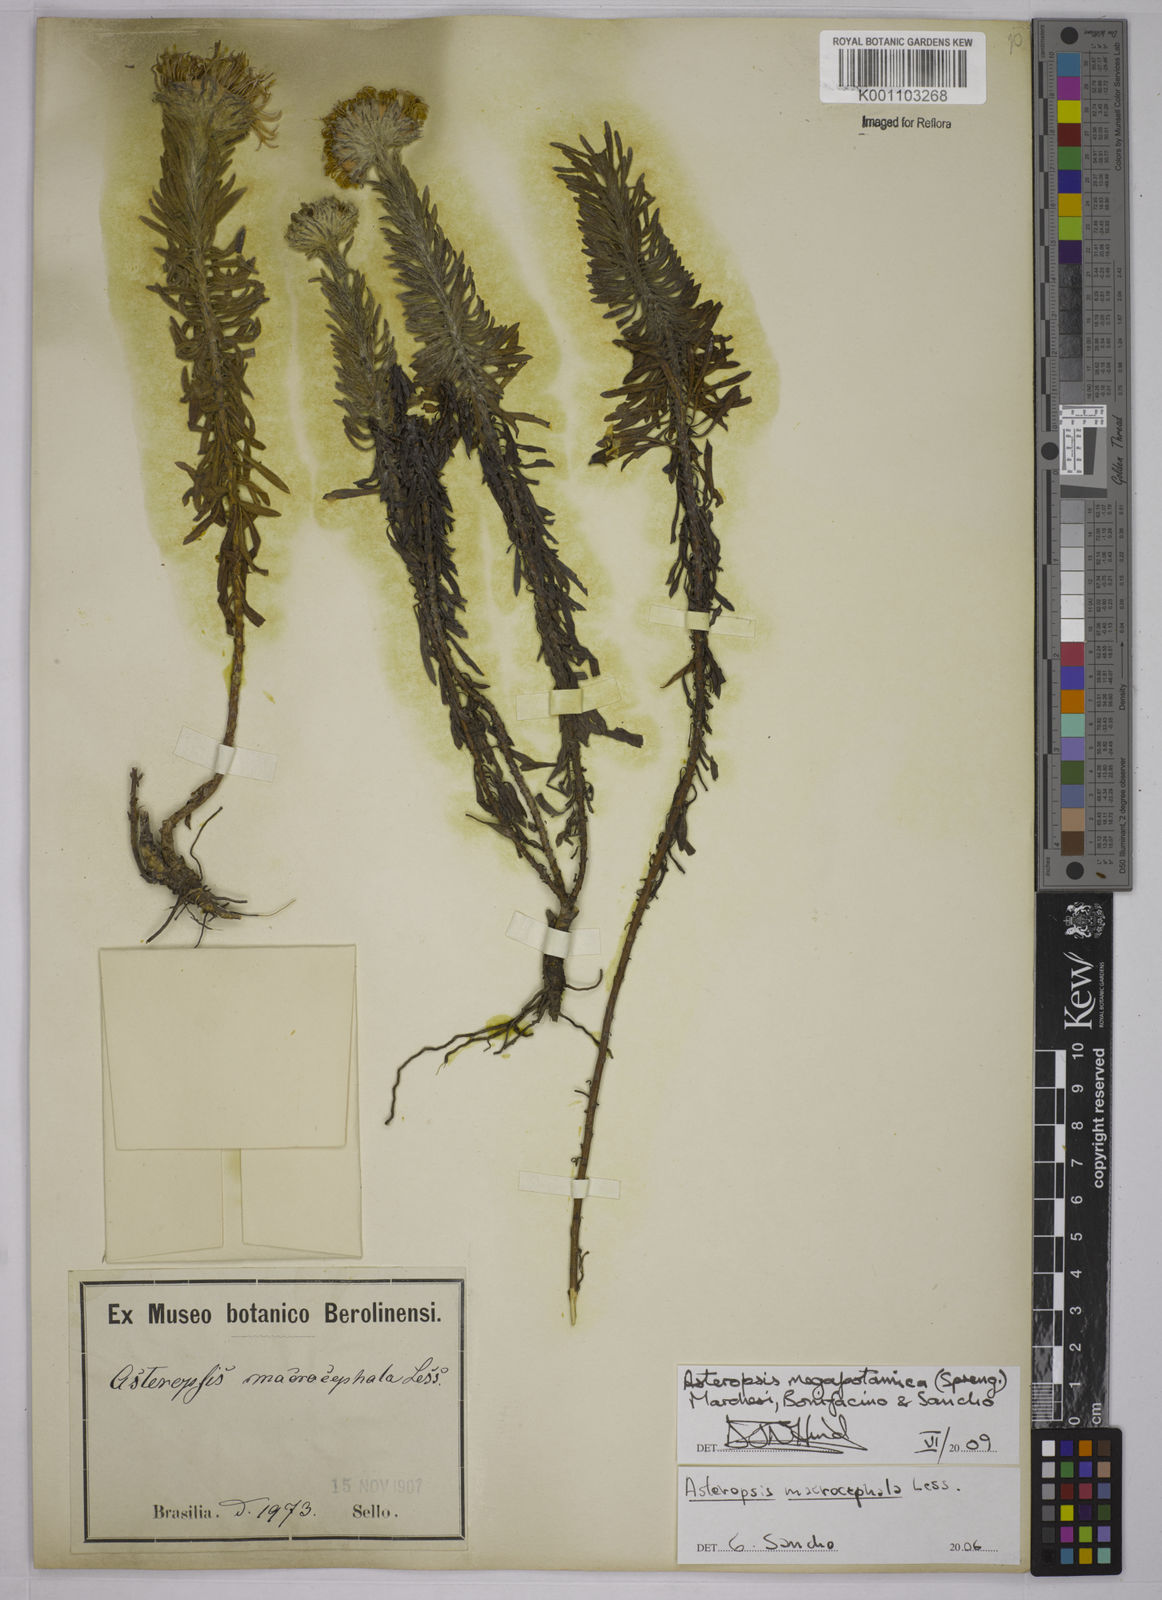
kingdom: Plantae
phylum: Tracheophyta
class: Magnoliopsida
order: Asterales
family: Asteraceae
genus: Podocoma
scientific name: Podocoma macrocephala
